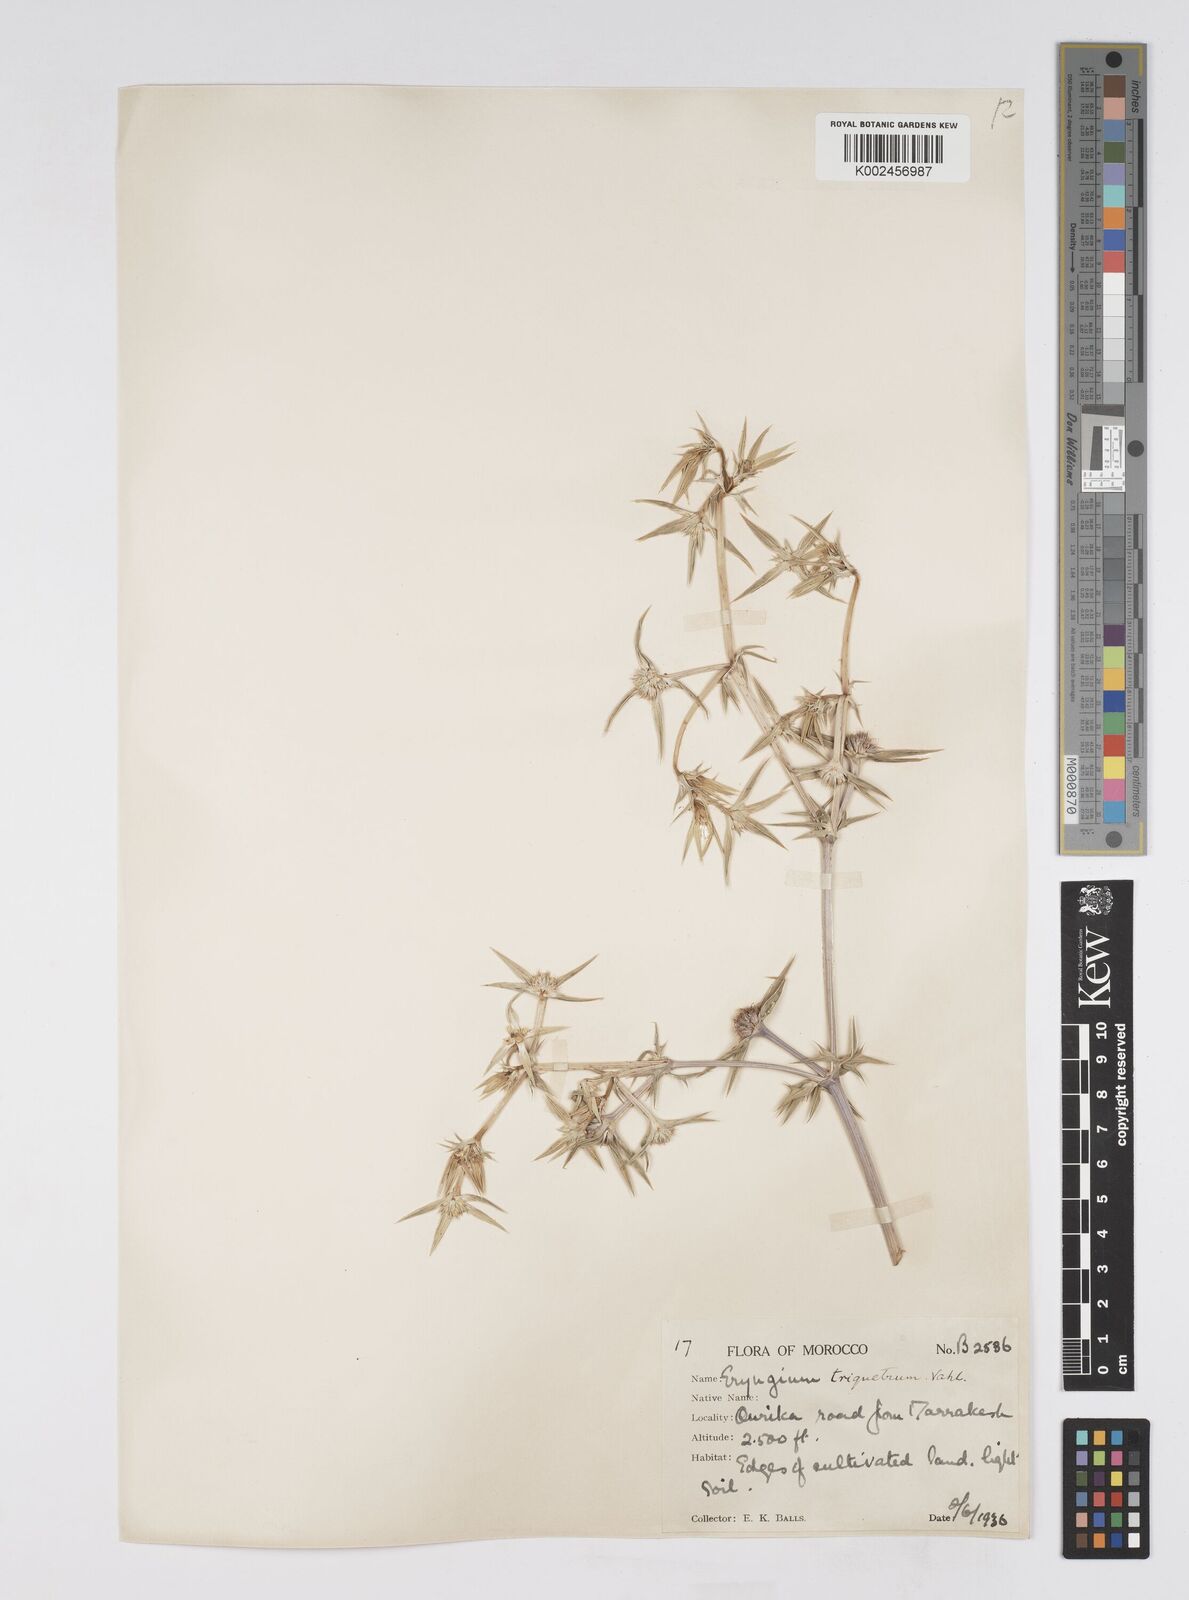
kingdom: Plantae
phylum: Tracheophyta
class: Magnoliopsida
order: Apiales
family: Apiaceae
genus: Eryngium
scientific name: Eryngium triquetrum
